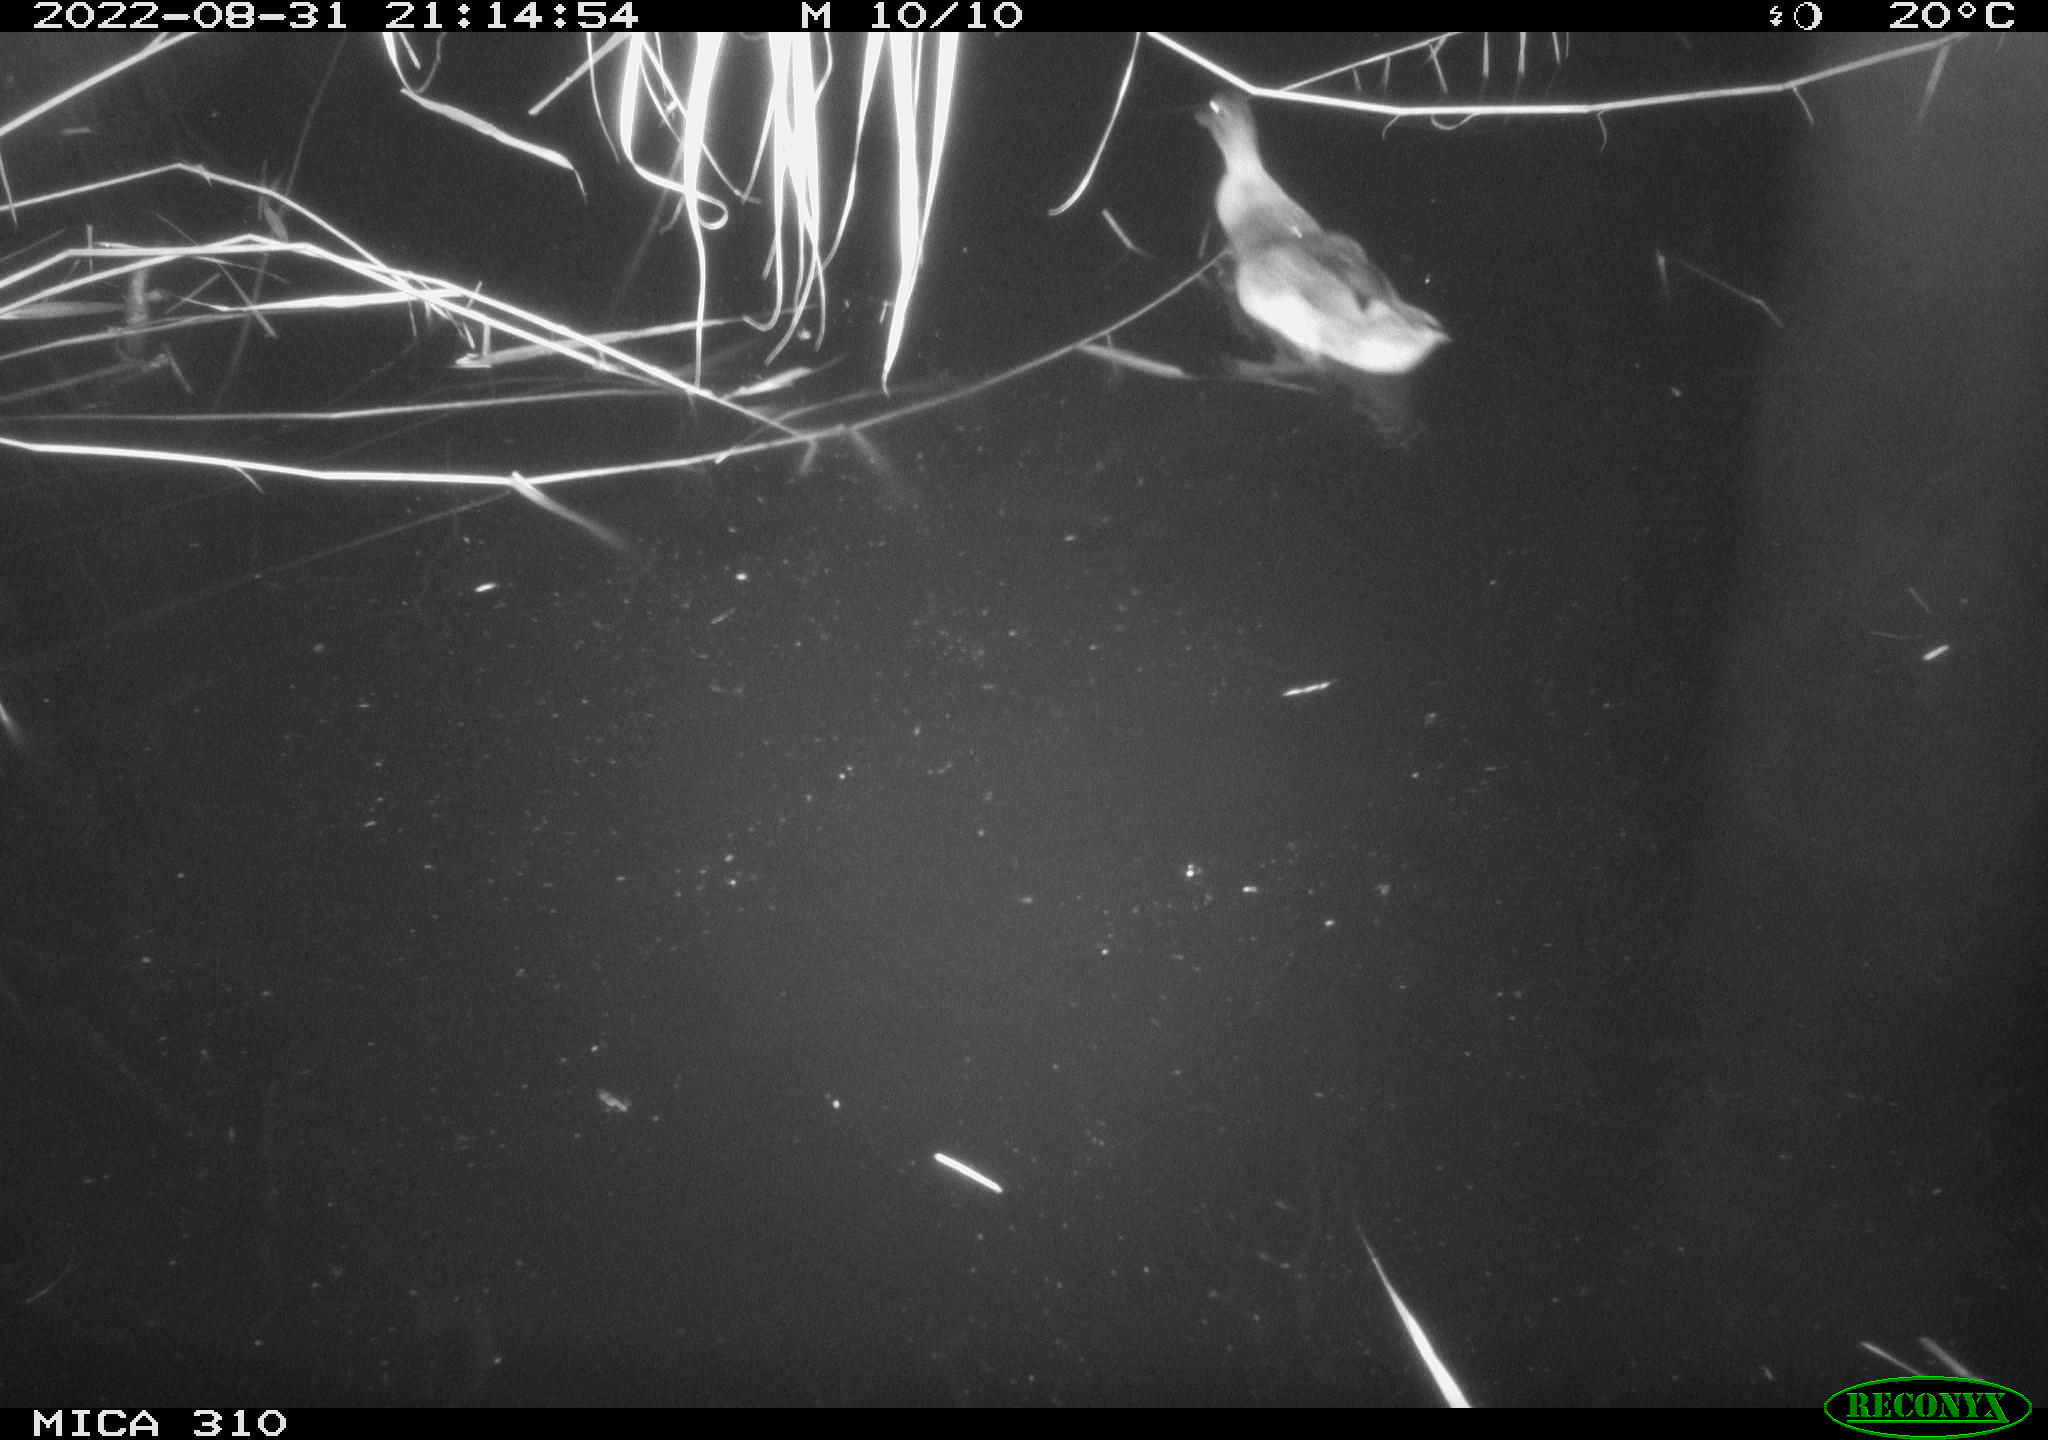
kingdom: Animalia
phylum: Chordata
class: Aves
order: Gruiformes
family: Rallidae
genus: Gallinula
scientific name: Gallinula chloropus
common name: Common moorhen
